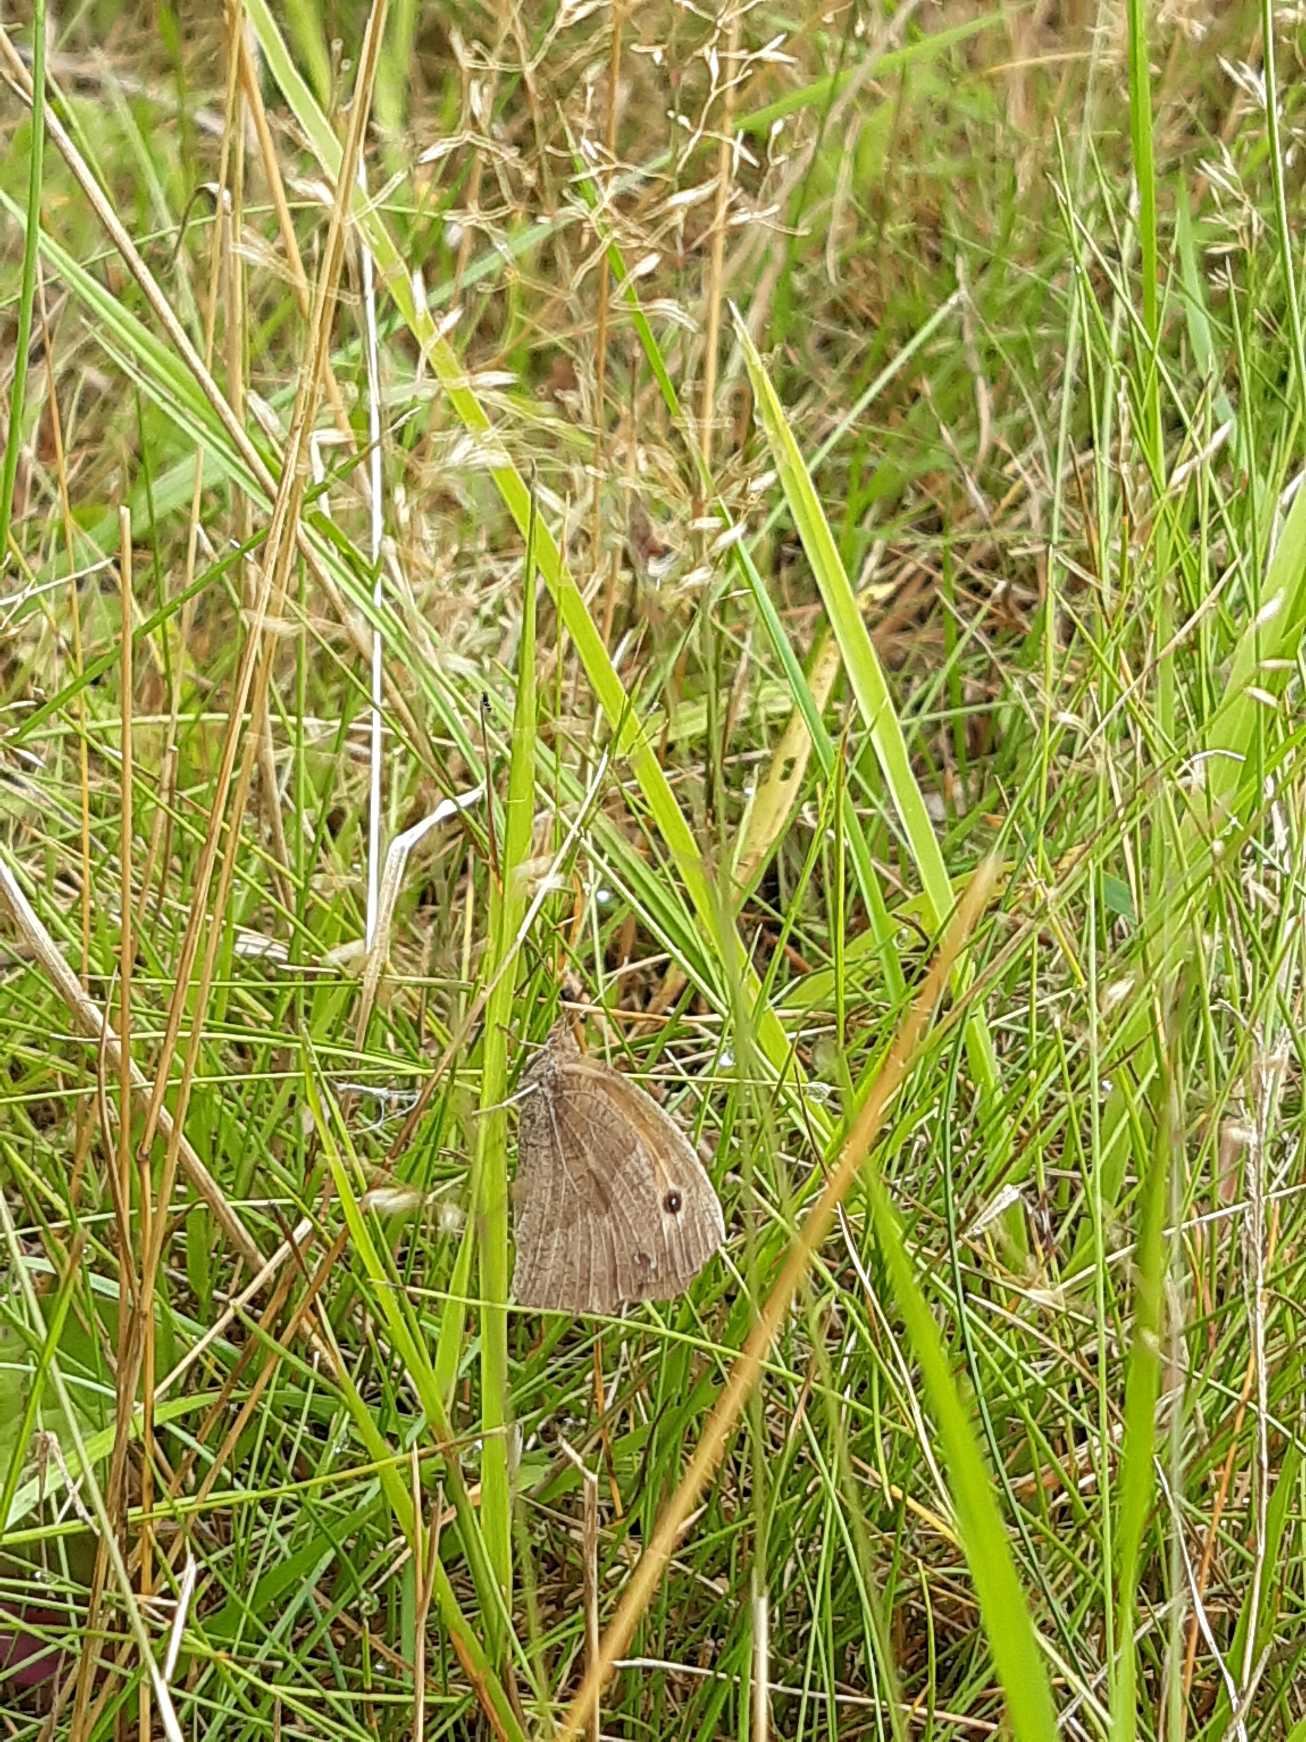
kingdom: Animalia
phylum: Arthropoda
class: Insecta
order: Lepidoptera
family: Nymphalidae
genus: Maniola
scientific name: Maniola jurtina
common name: Græsrandøje
